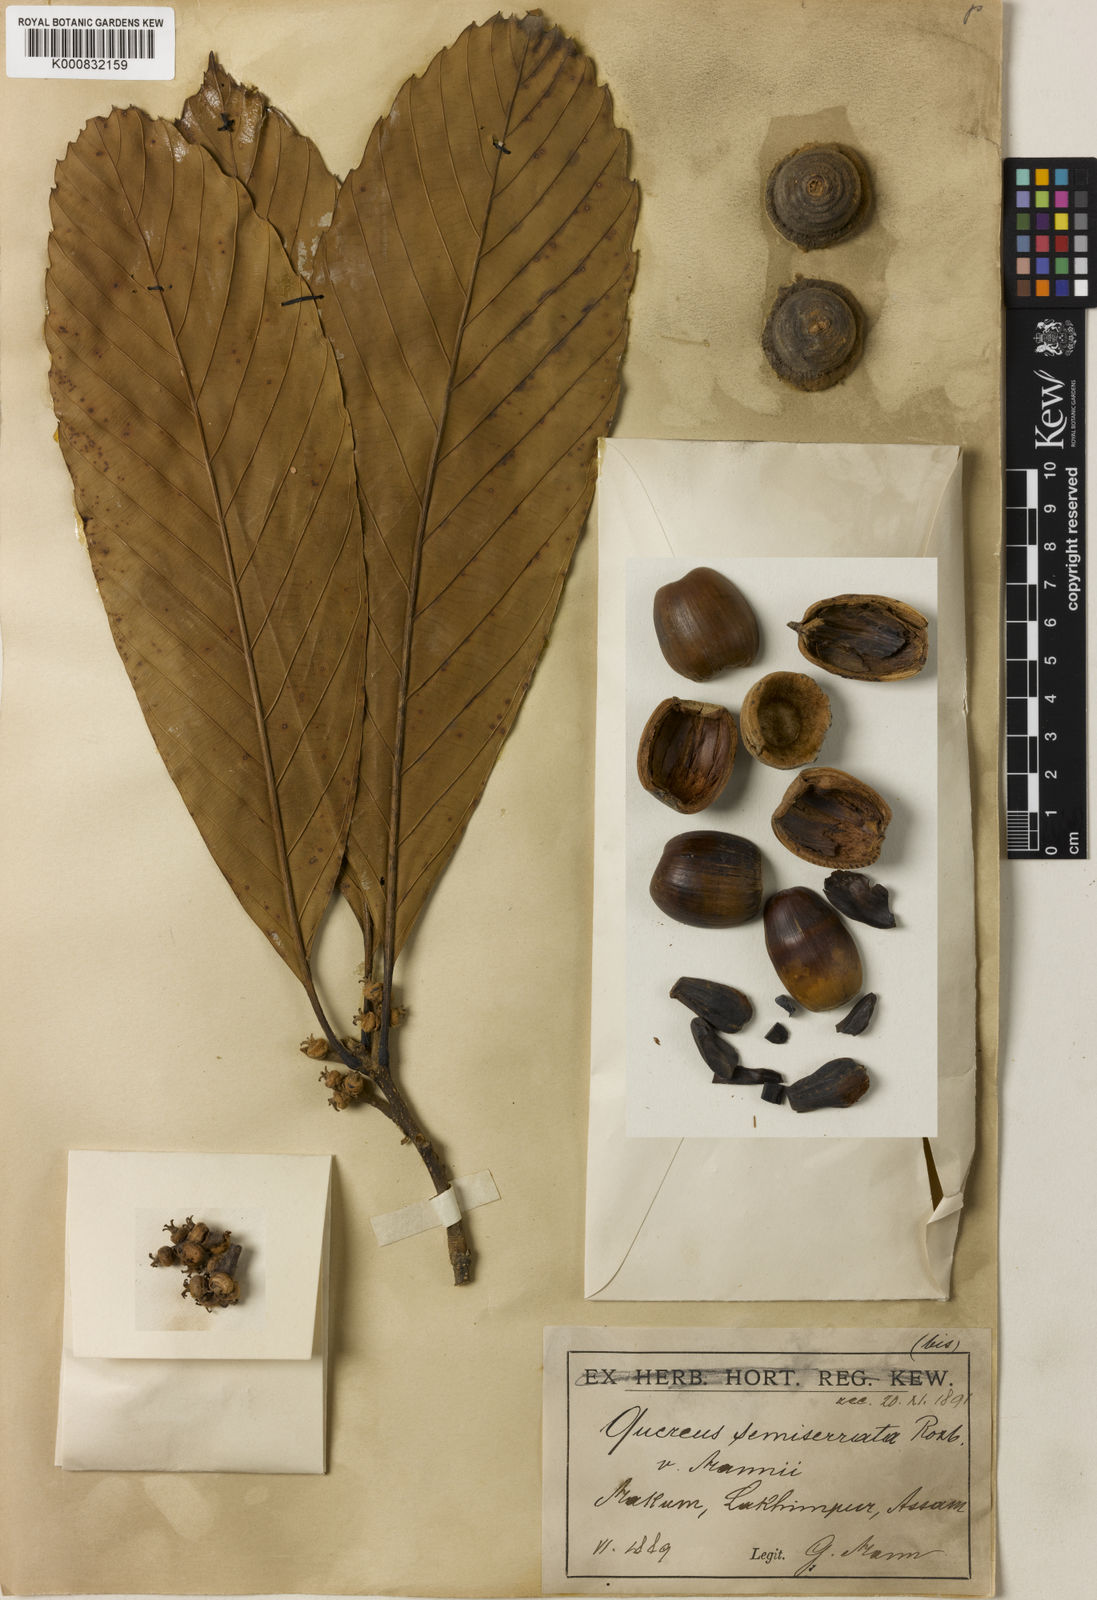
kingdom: Plantae
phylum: Tracheophyta
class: Magnoliopsida
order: Fagales
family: Fagaceae
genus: Quercus
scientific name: Quercus semiserrata
